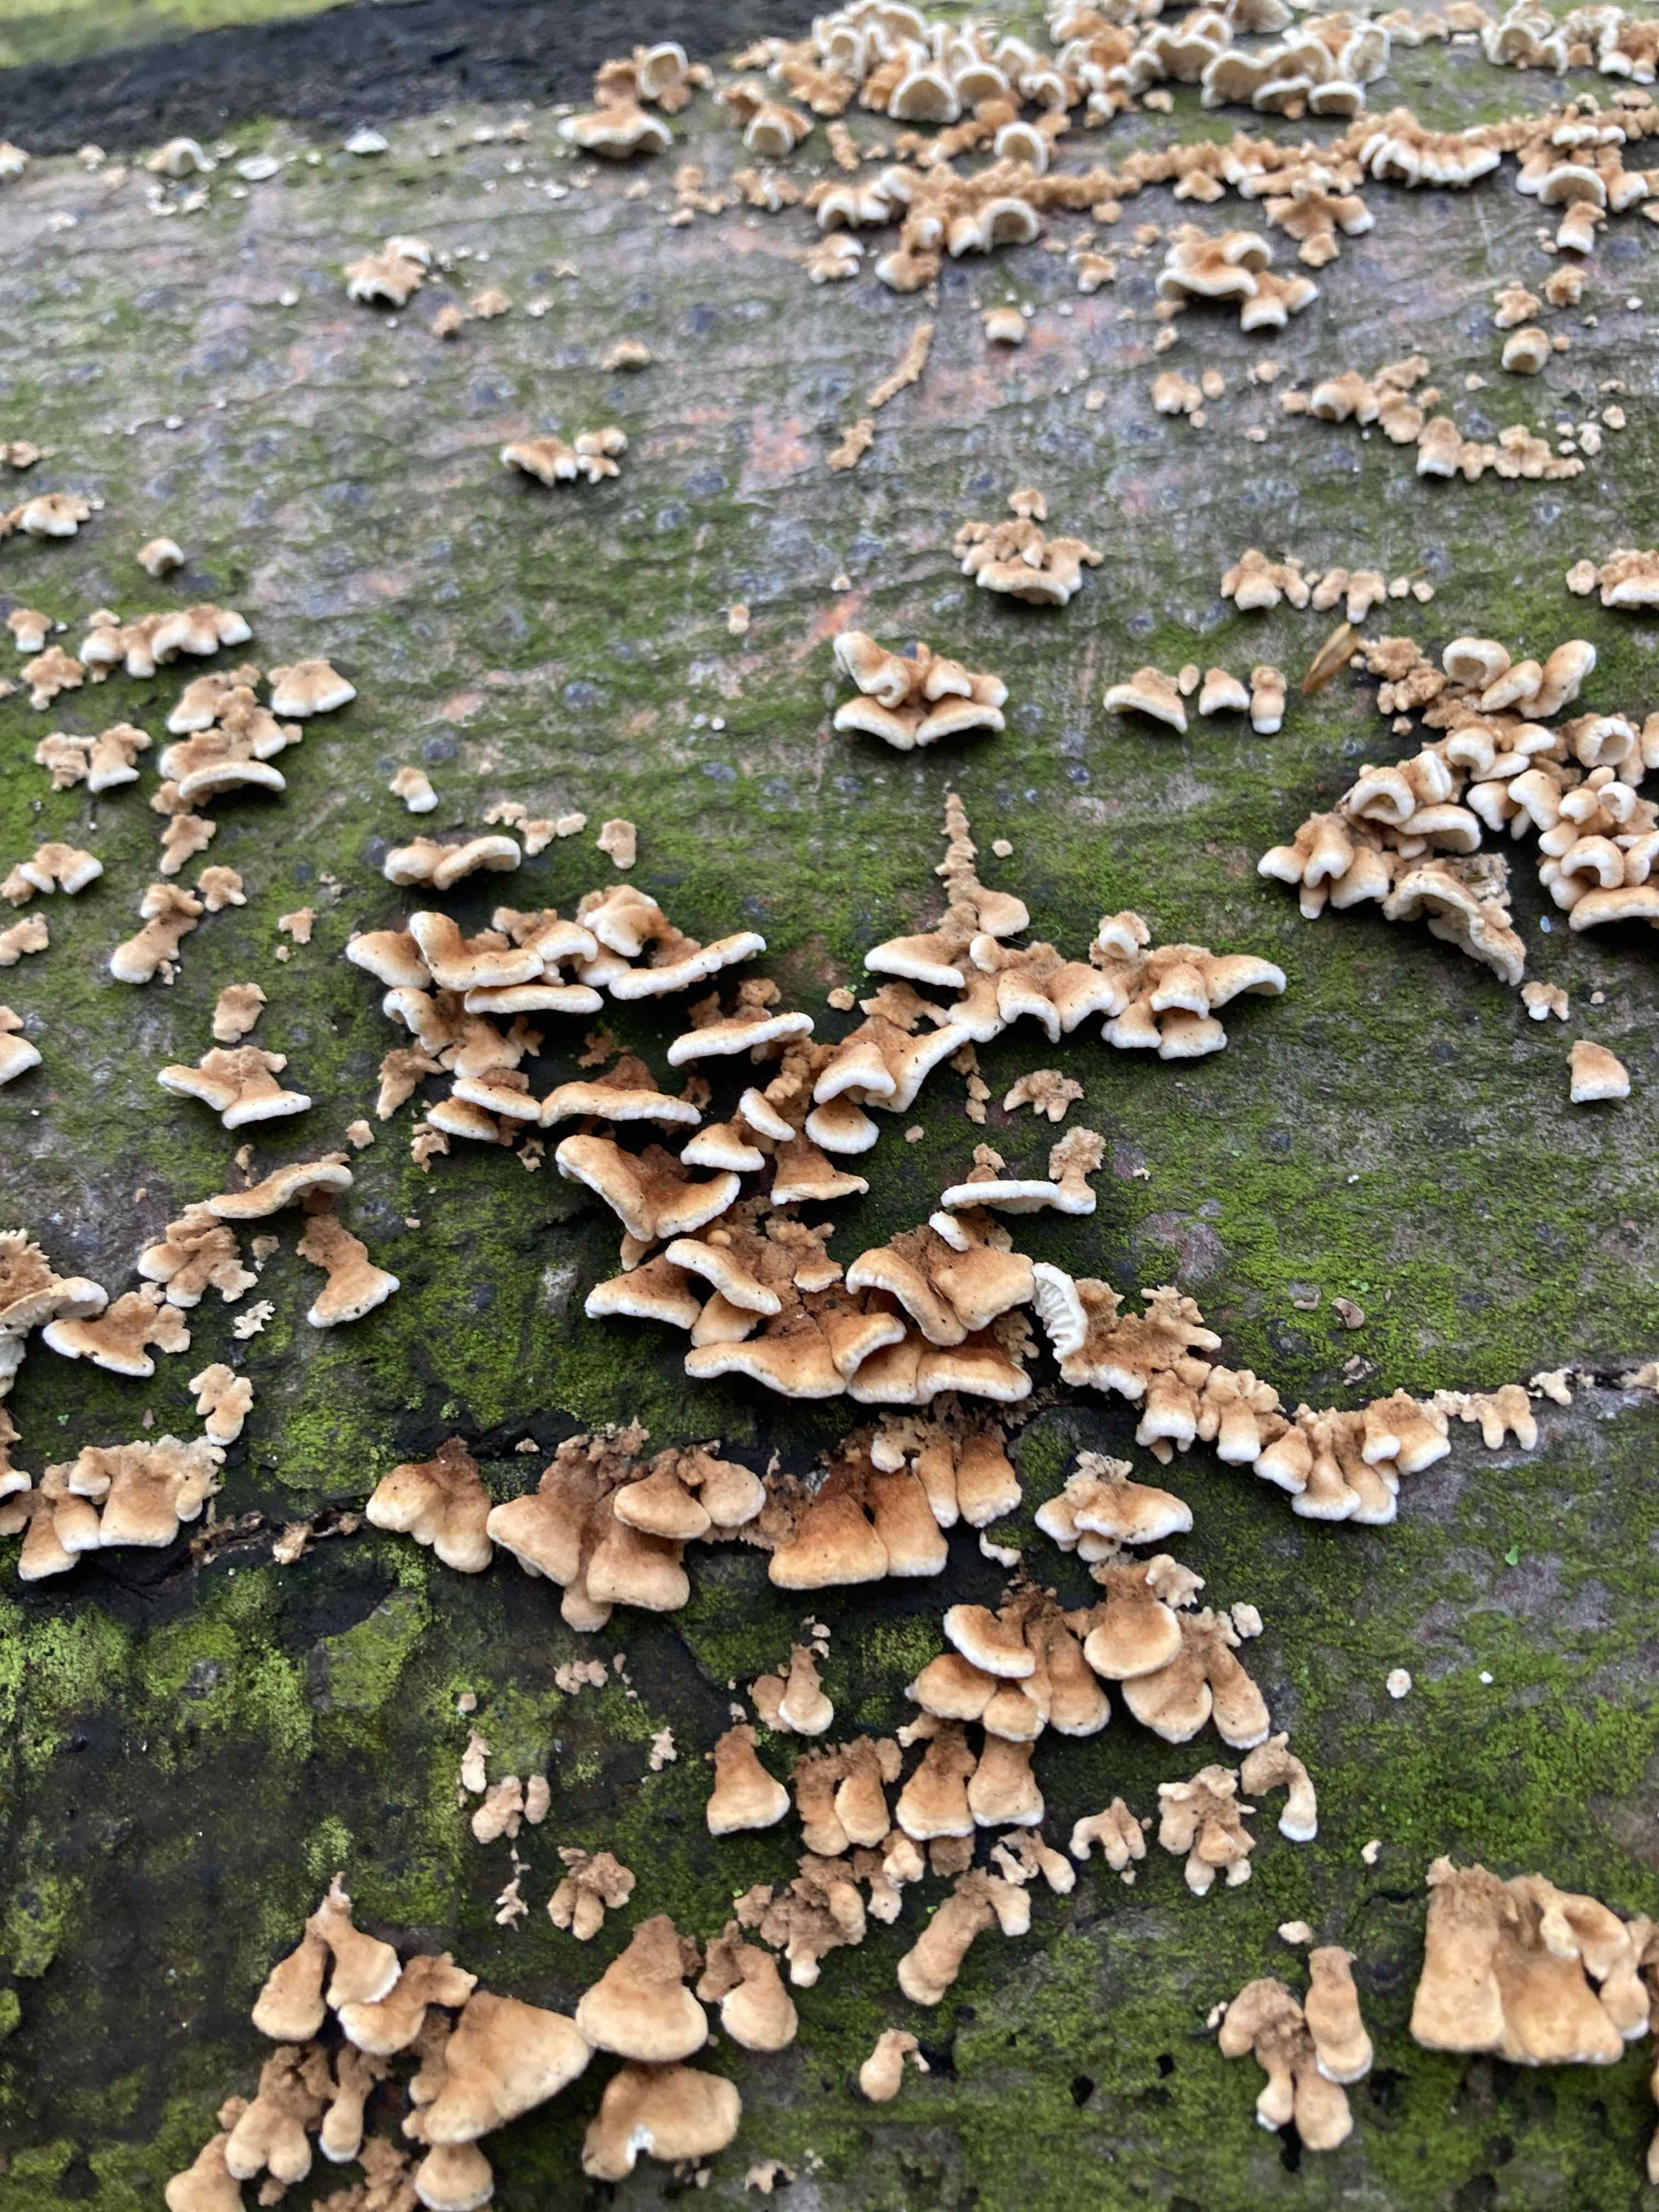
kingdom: Fungi
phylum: Basidiomycota
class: Agaricomycetes
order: Amylocorticiales
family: Amylocorticiaceae
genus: Plicaturopsis
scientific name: Plicaturopsis crispa
